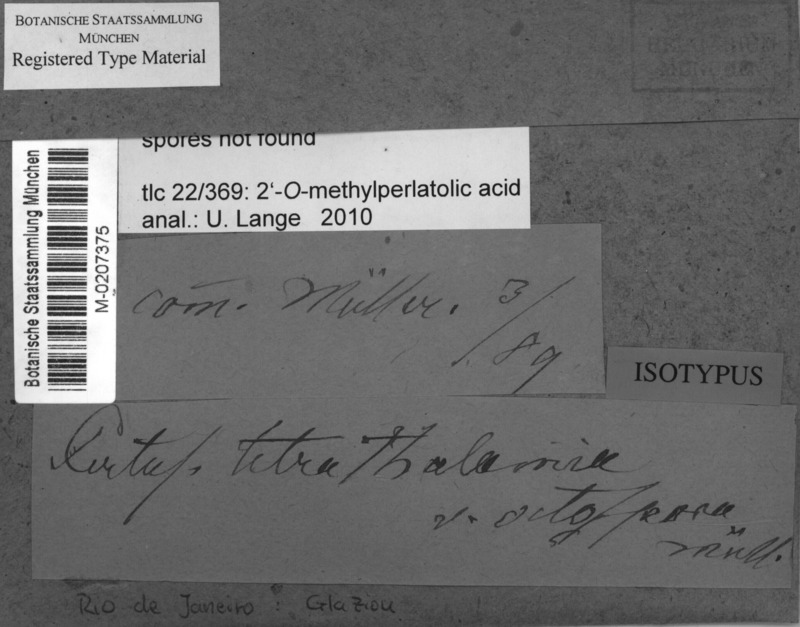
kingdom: Fungi
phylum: Ascomycota
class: Lecanoromycetes
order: Pertusariales
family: Pertusariaceae
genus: Pertusaria
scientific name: Pertusaria tuberculifera
